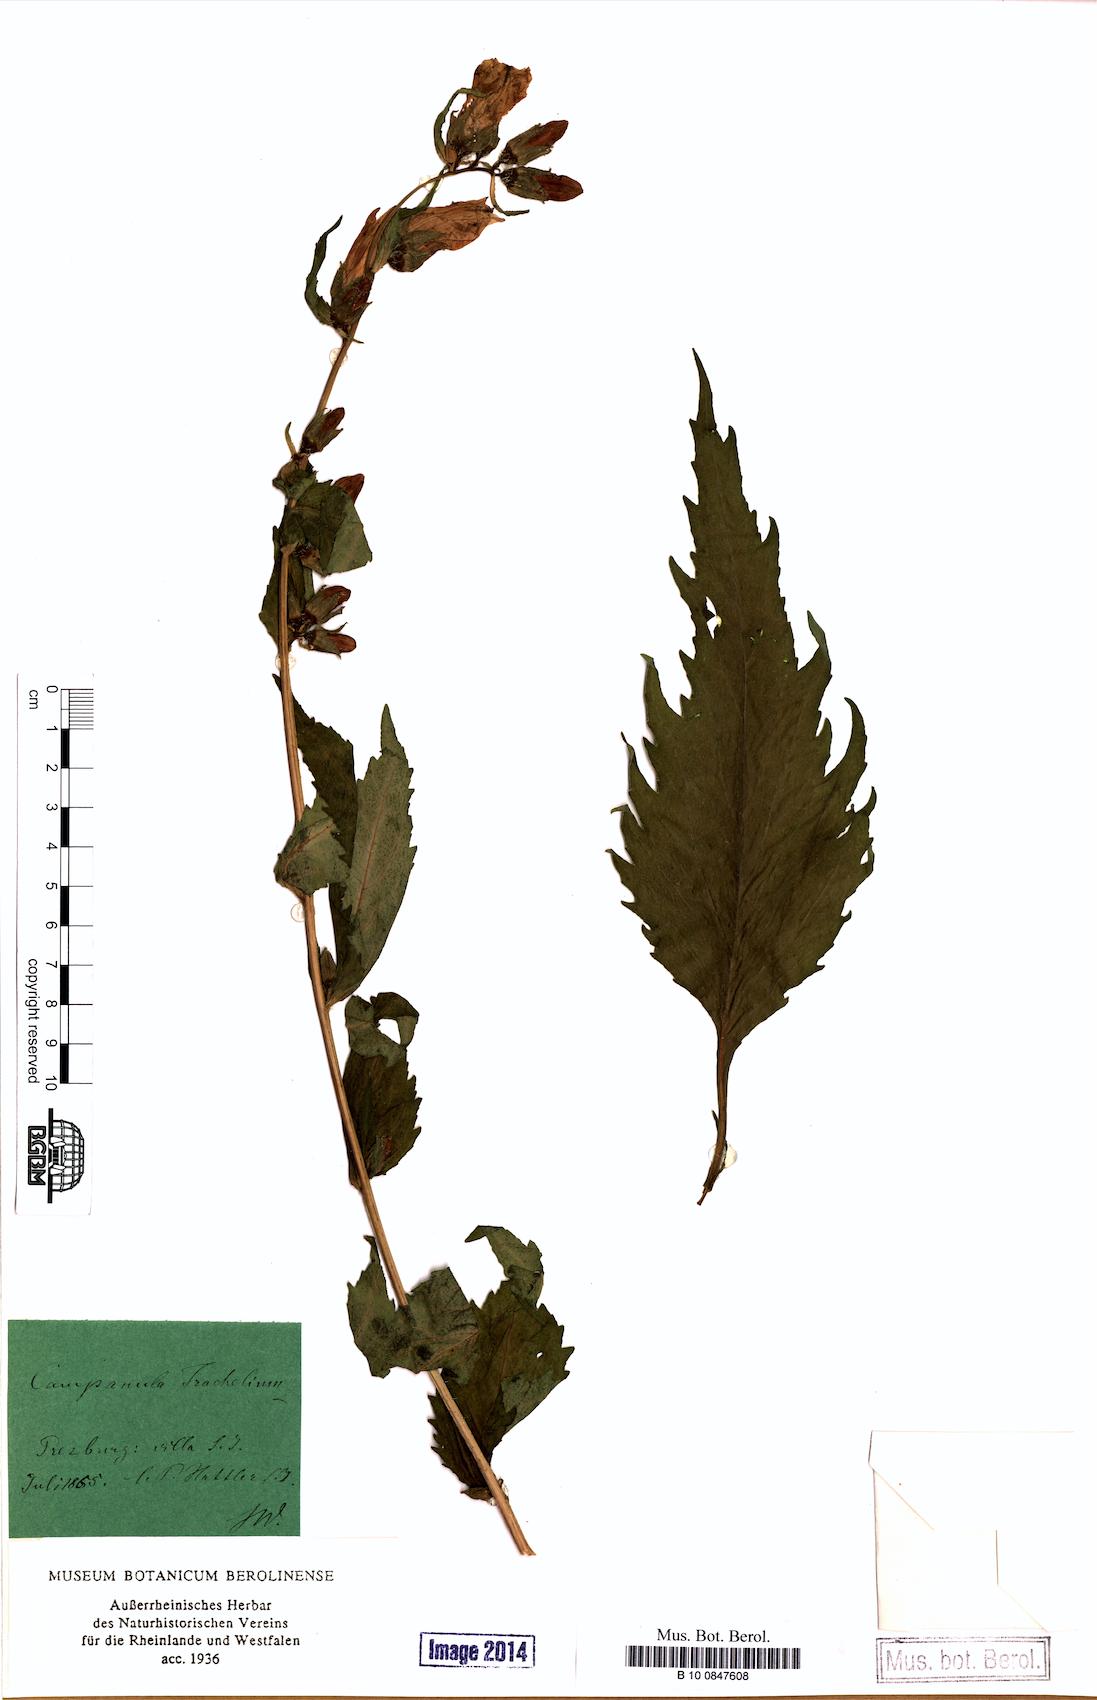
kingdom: Plantae
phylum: Tracheophyta
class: Magnoliopsida
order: Asterales
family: Campanulaceae
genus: Campanula
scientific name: Campanula trachelium
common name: Nettle-leaved bellflower
